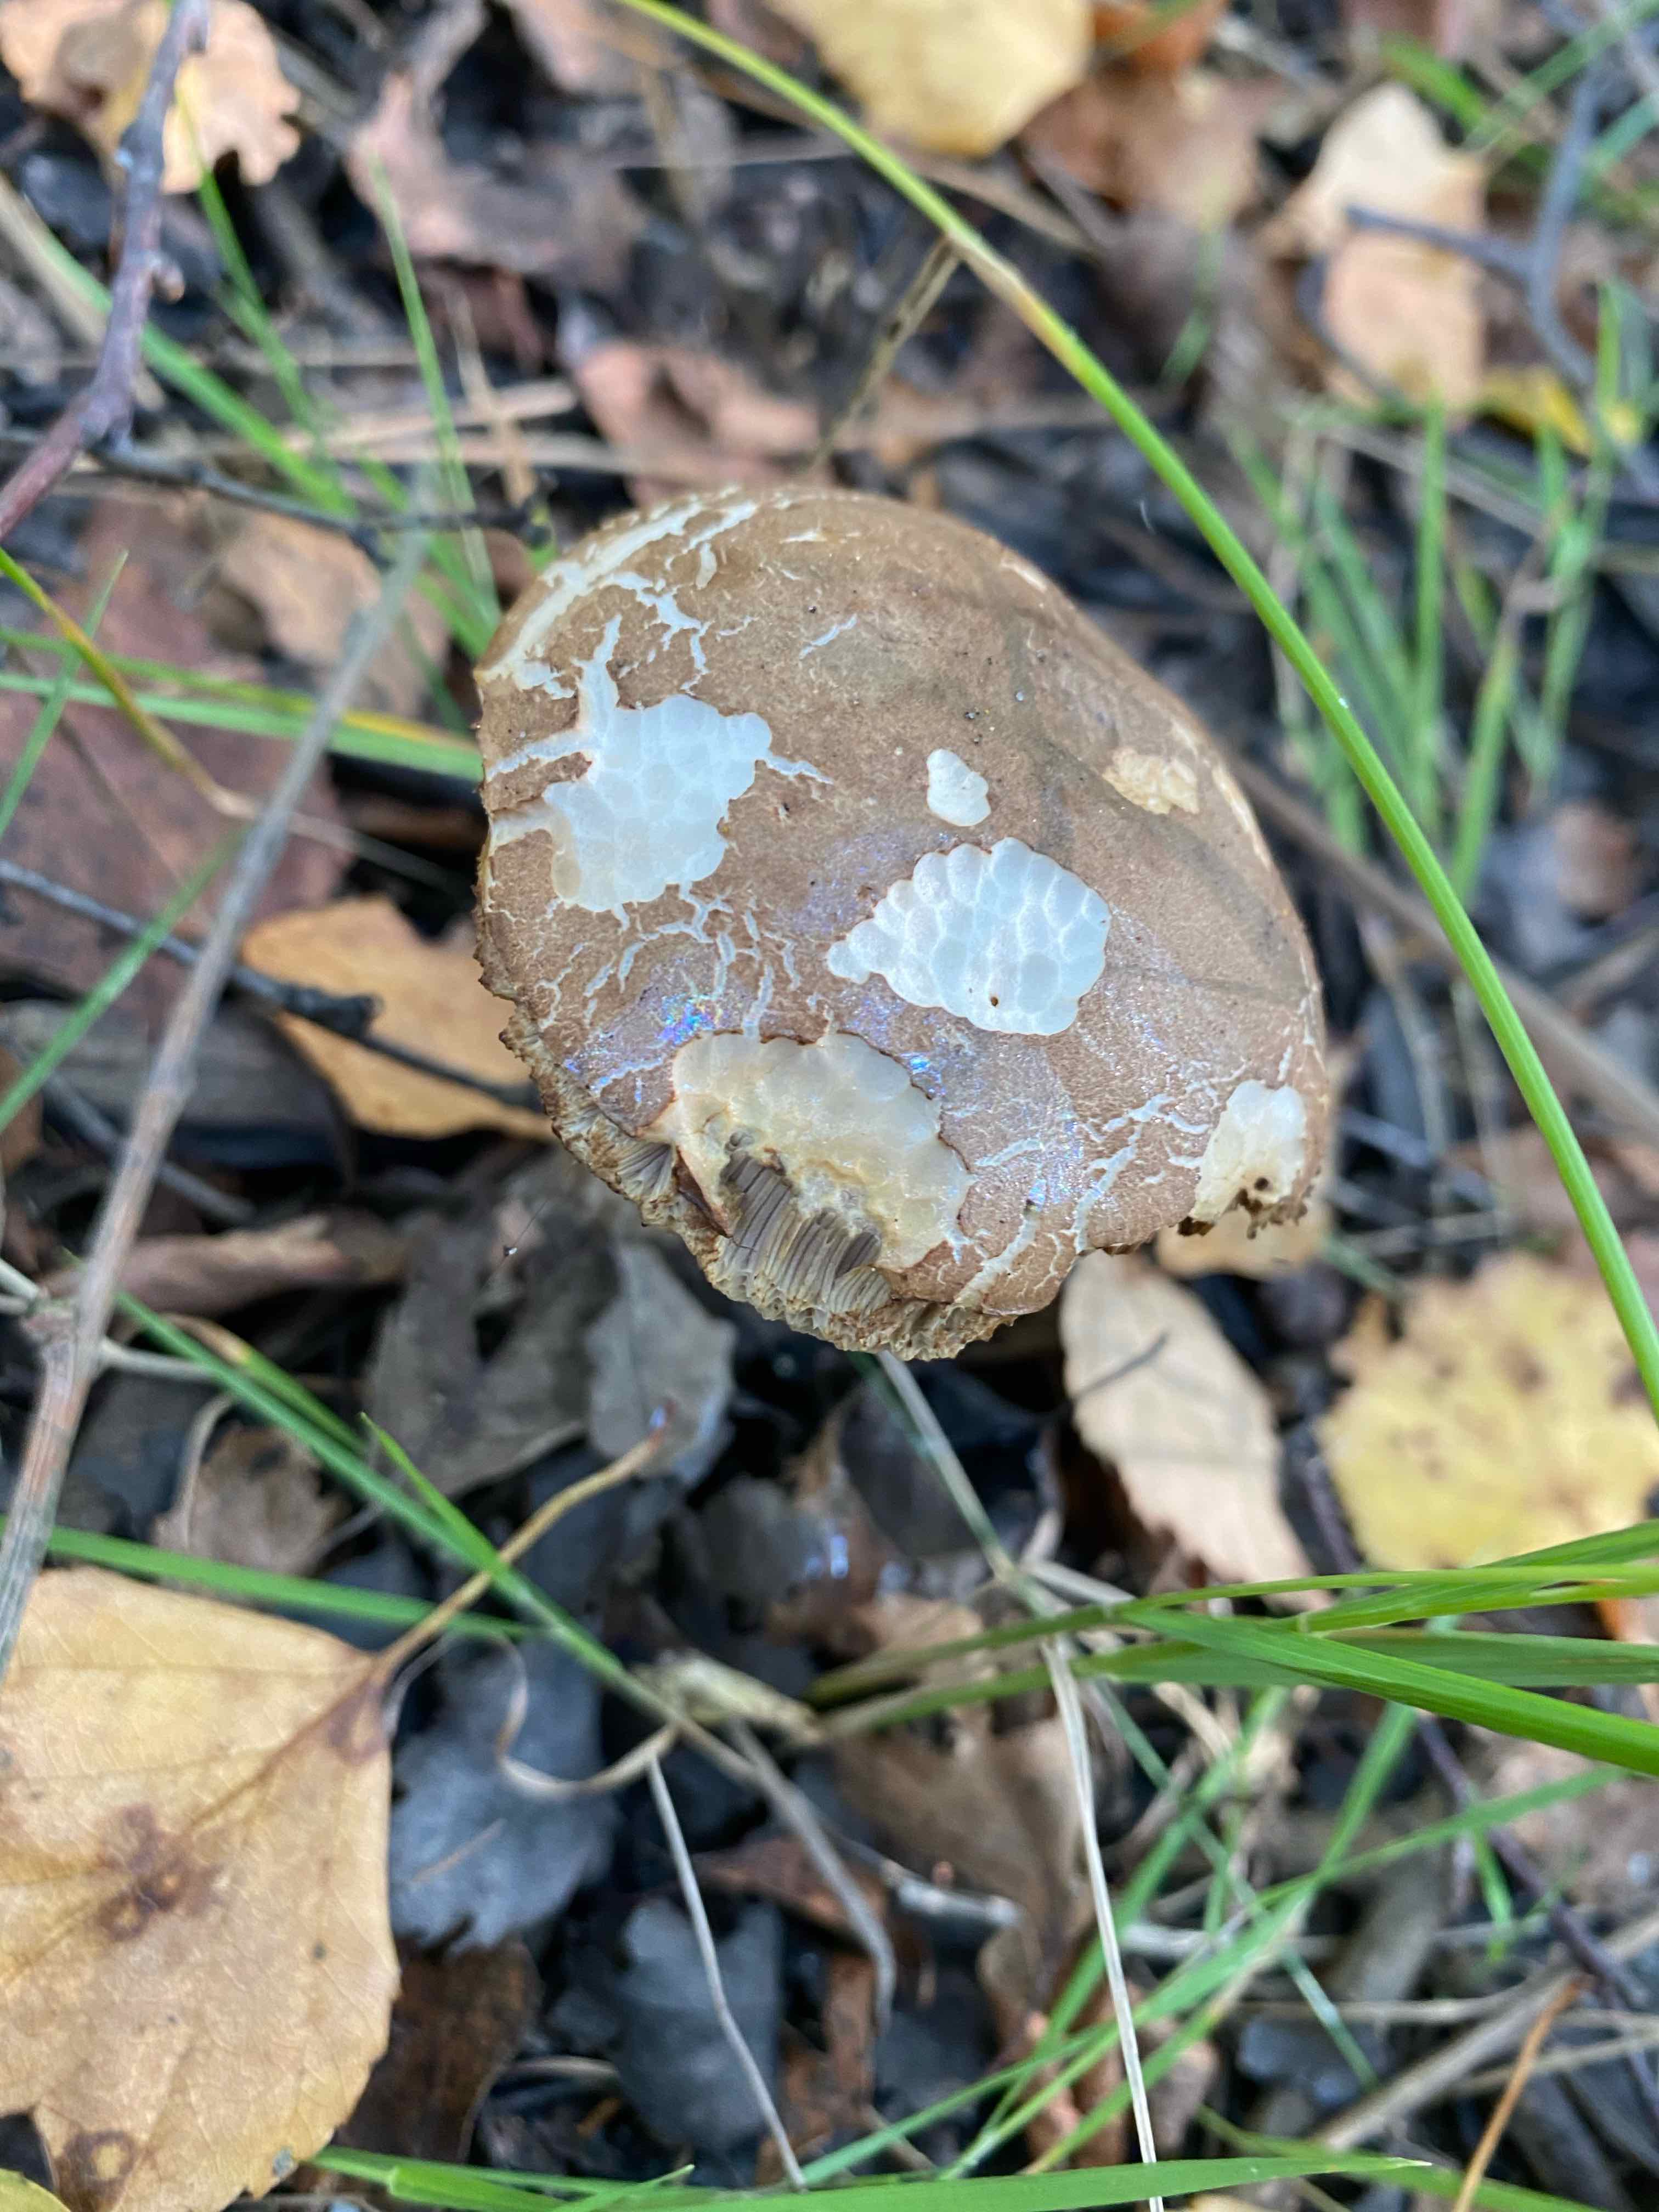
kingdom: Fungi
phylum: Basidiomycota
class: Agaricomycetes
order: Boletales
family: Boletaceae
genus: Leccinum
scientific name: Leccinum
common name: skælrørhat
